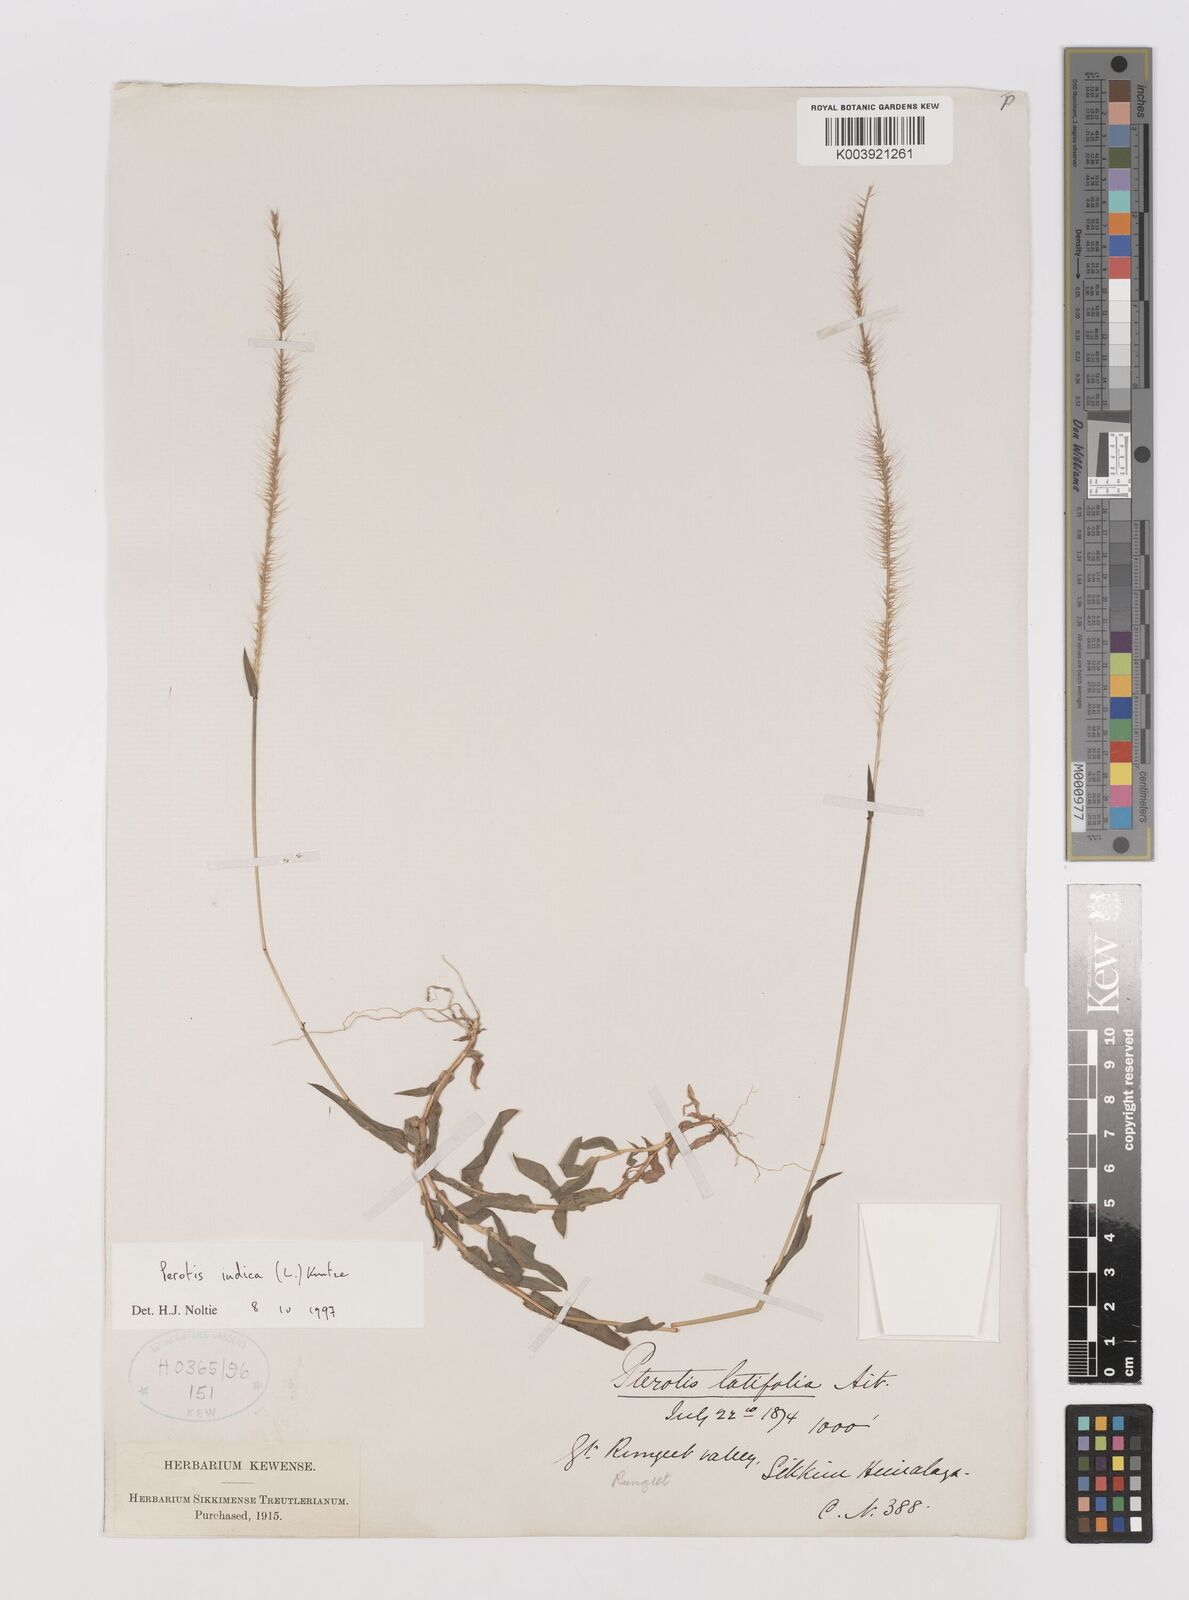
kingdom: Plantae
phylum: Tracheophyta
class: Liliopsida
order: Poales
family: Poaceae
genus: Perotis
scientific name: Perotis hordeiformis
